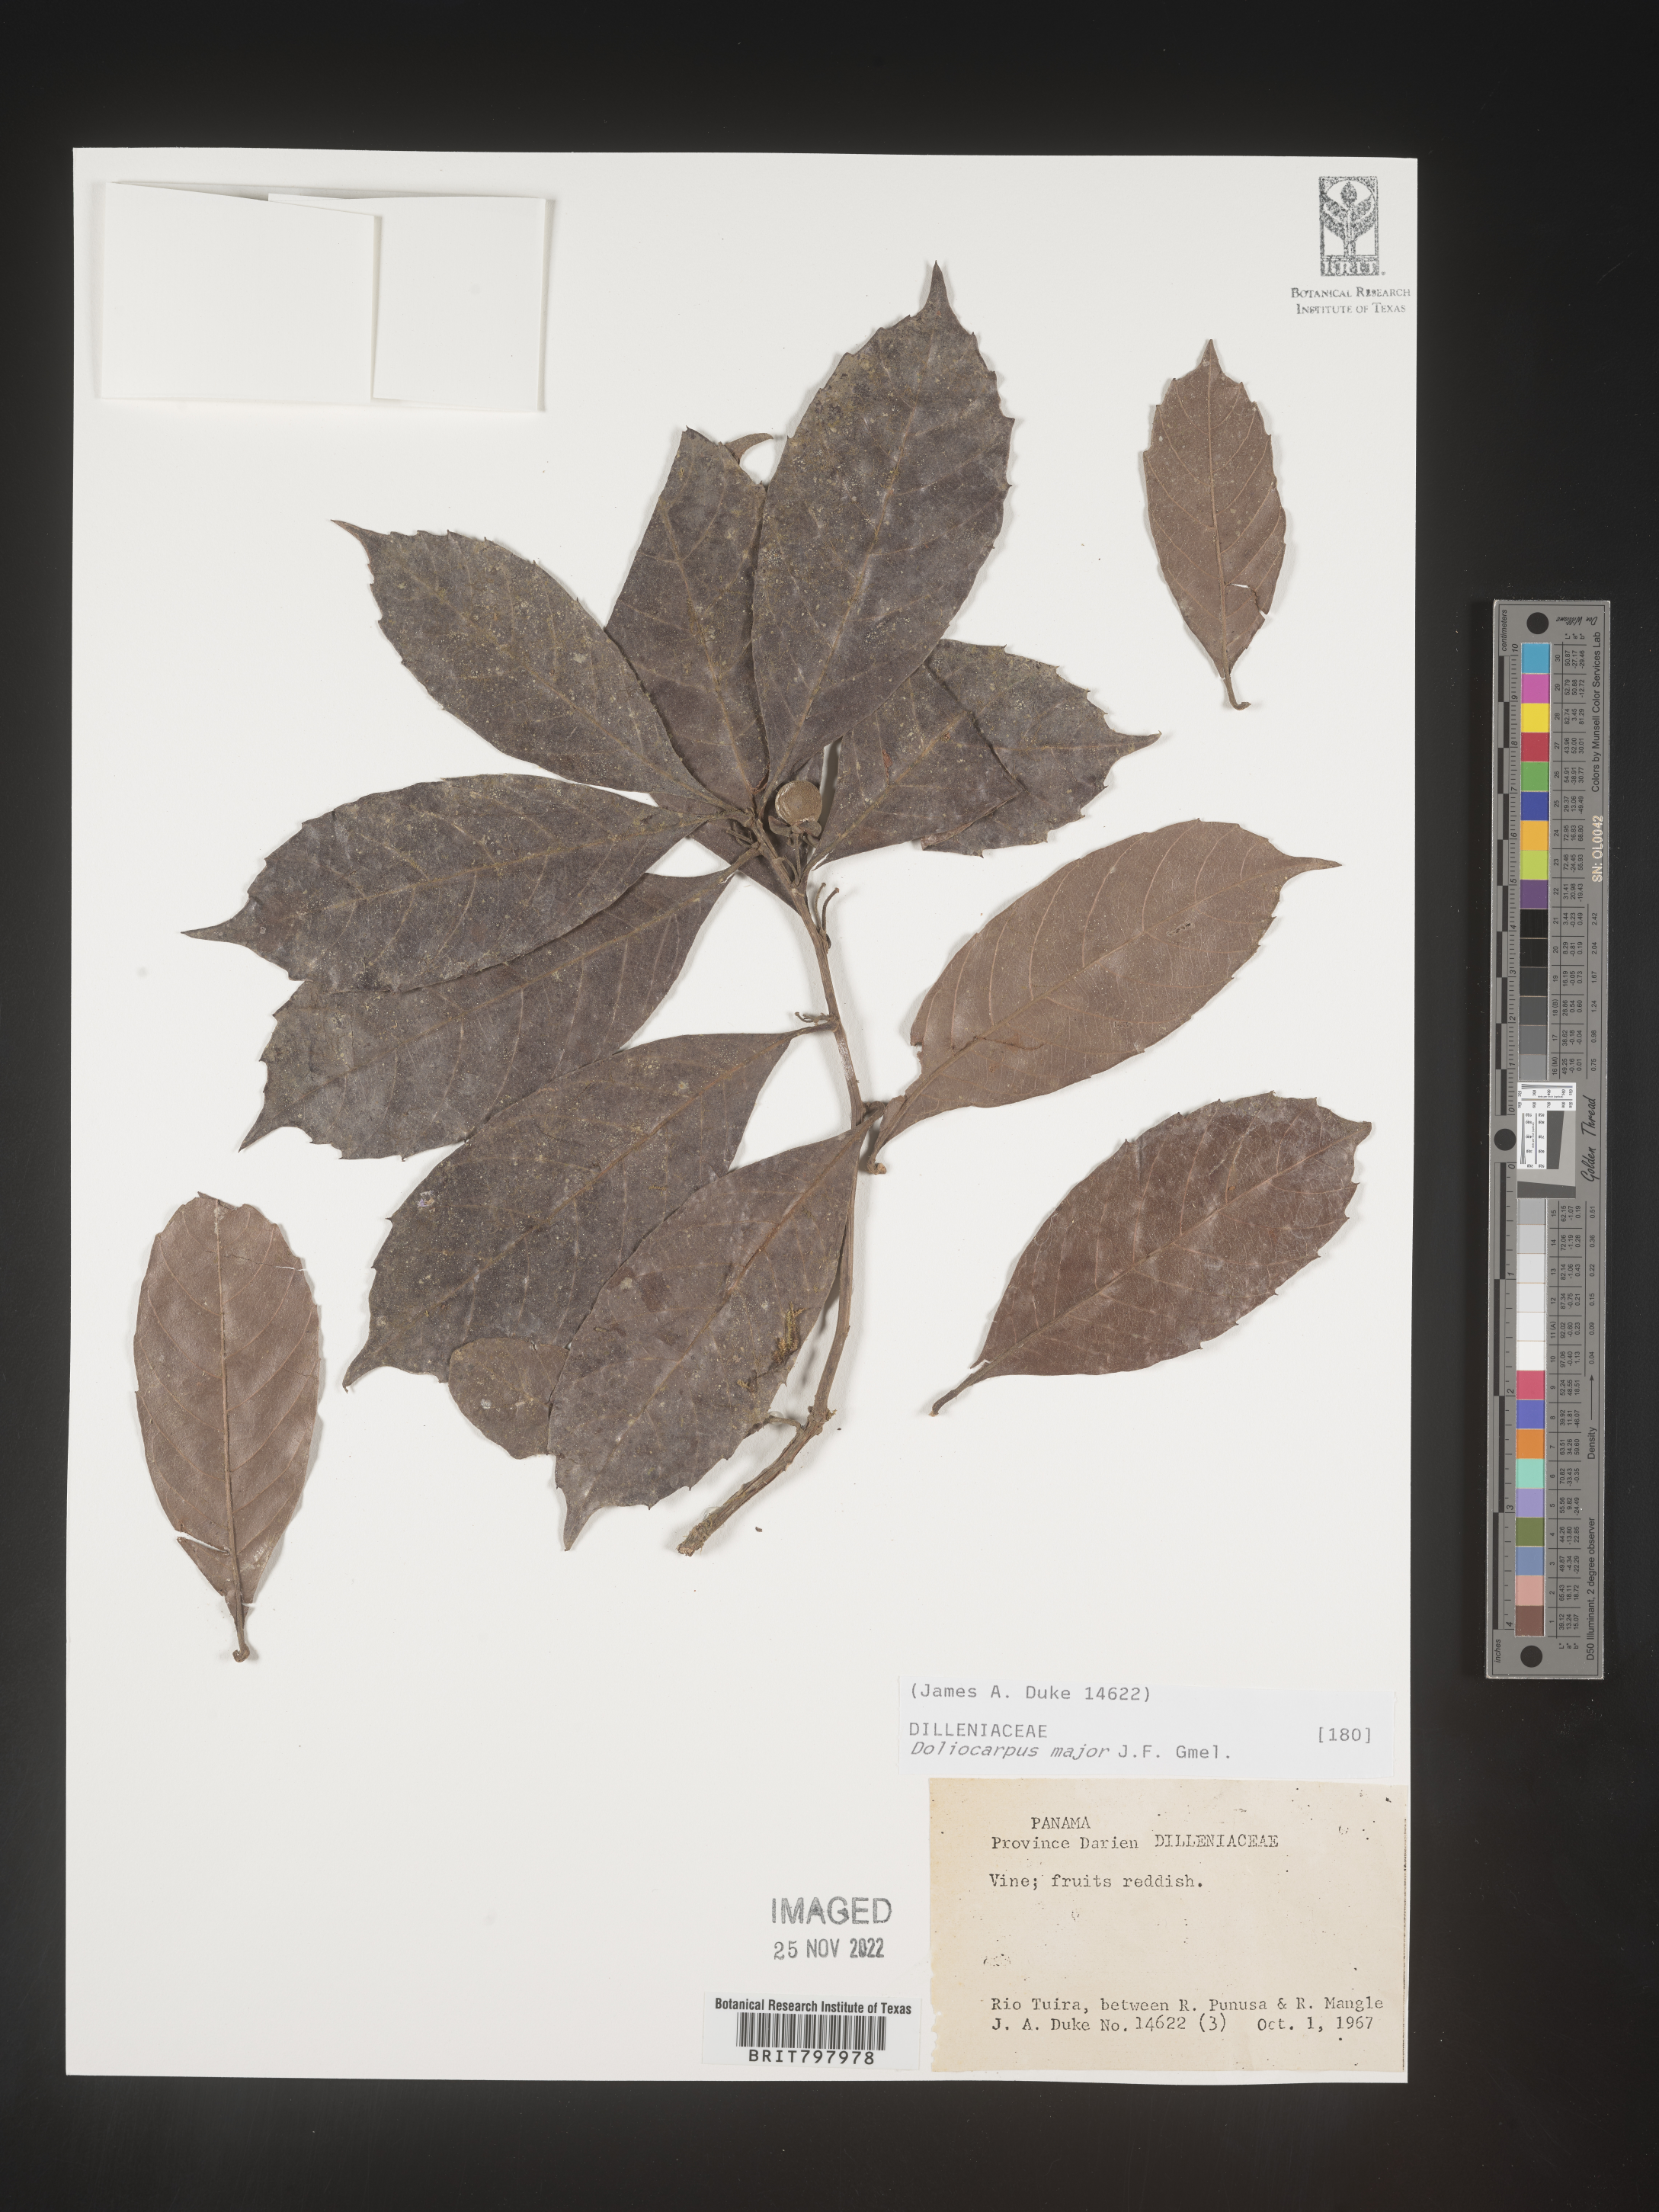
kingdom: Plantae
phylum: Tracheophyta
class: Magnoliopsida
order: Dilleniales
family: Dilleniaceae
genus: Doliocarpus
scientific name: Doliocarpus
